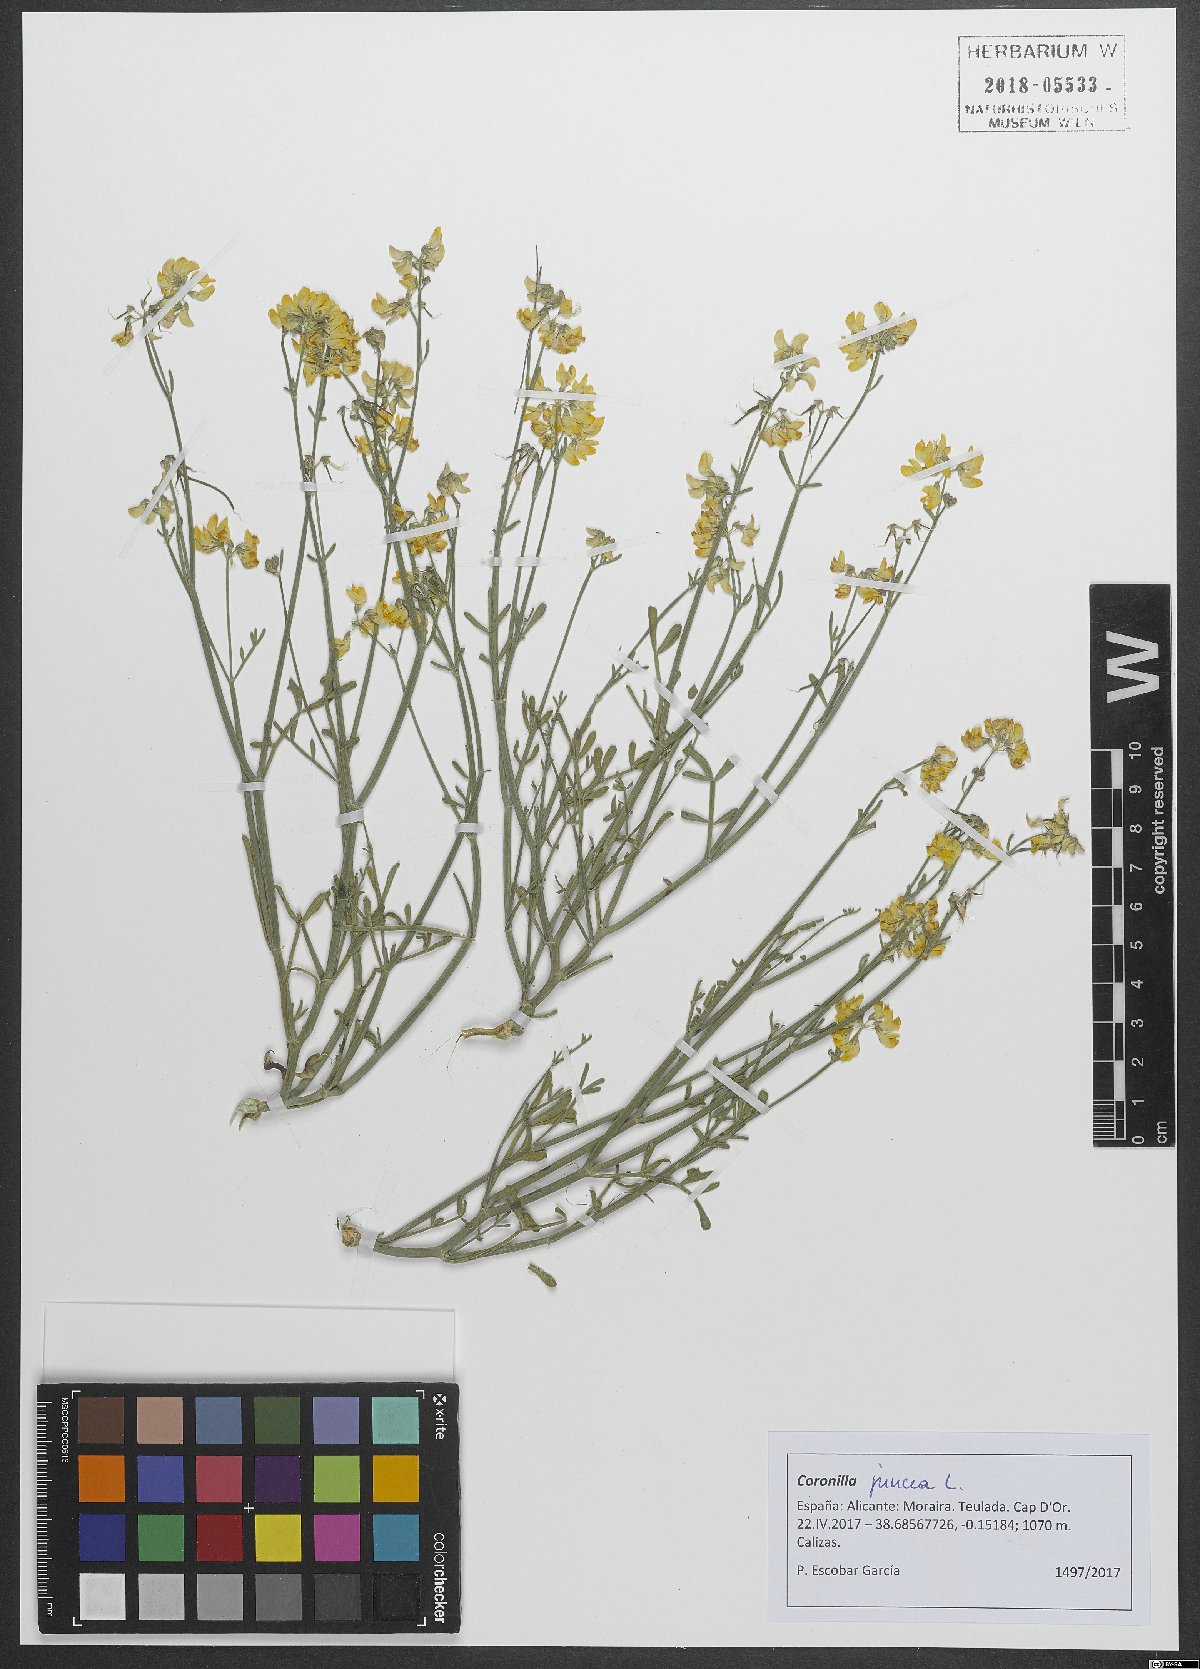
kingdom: Plantae
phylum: Tracheophyta
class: Magnoliopsida
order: Fabales
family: Fabaceae
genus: Coronilla
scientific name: Coronilla juncea
